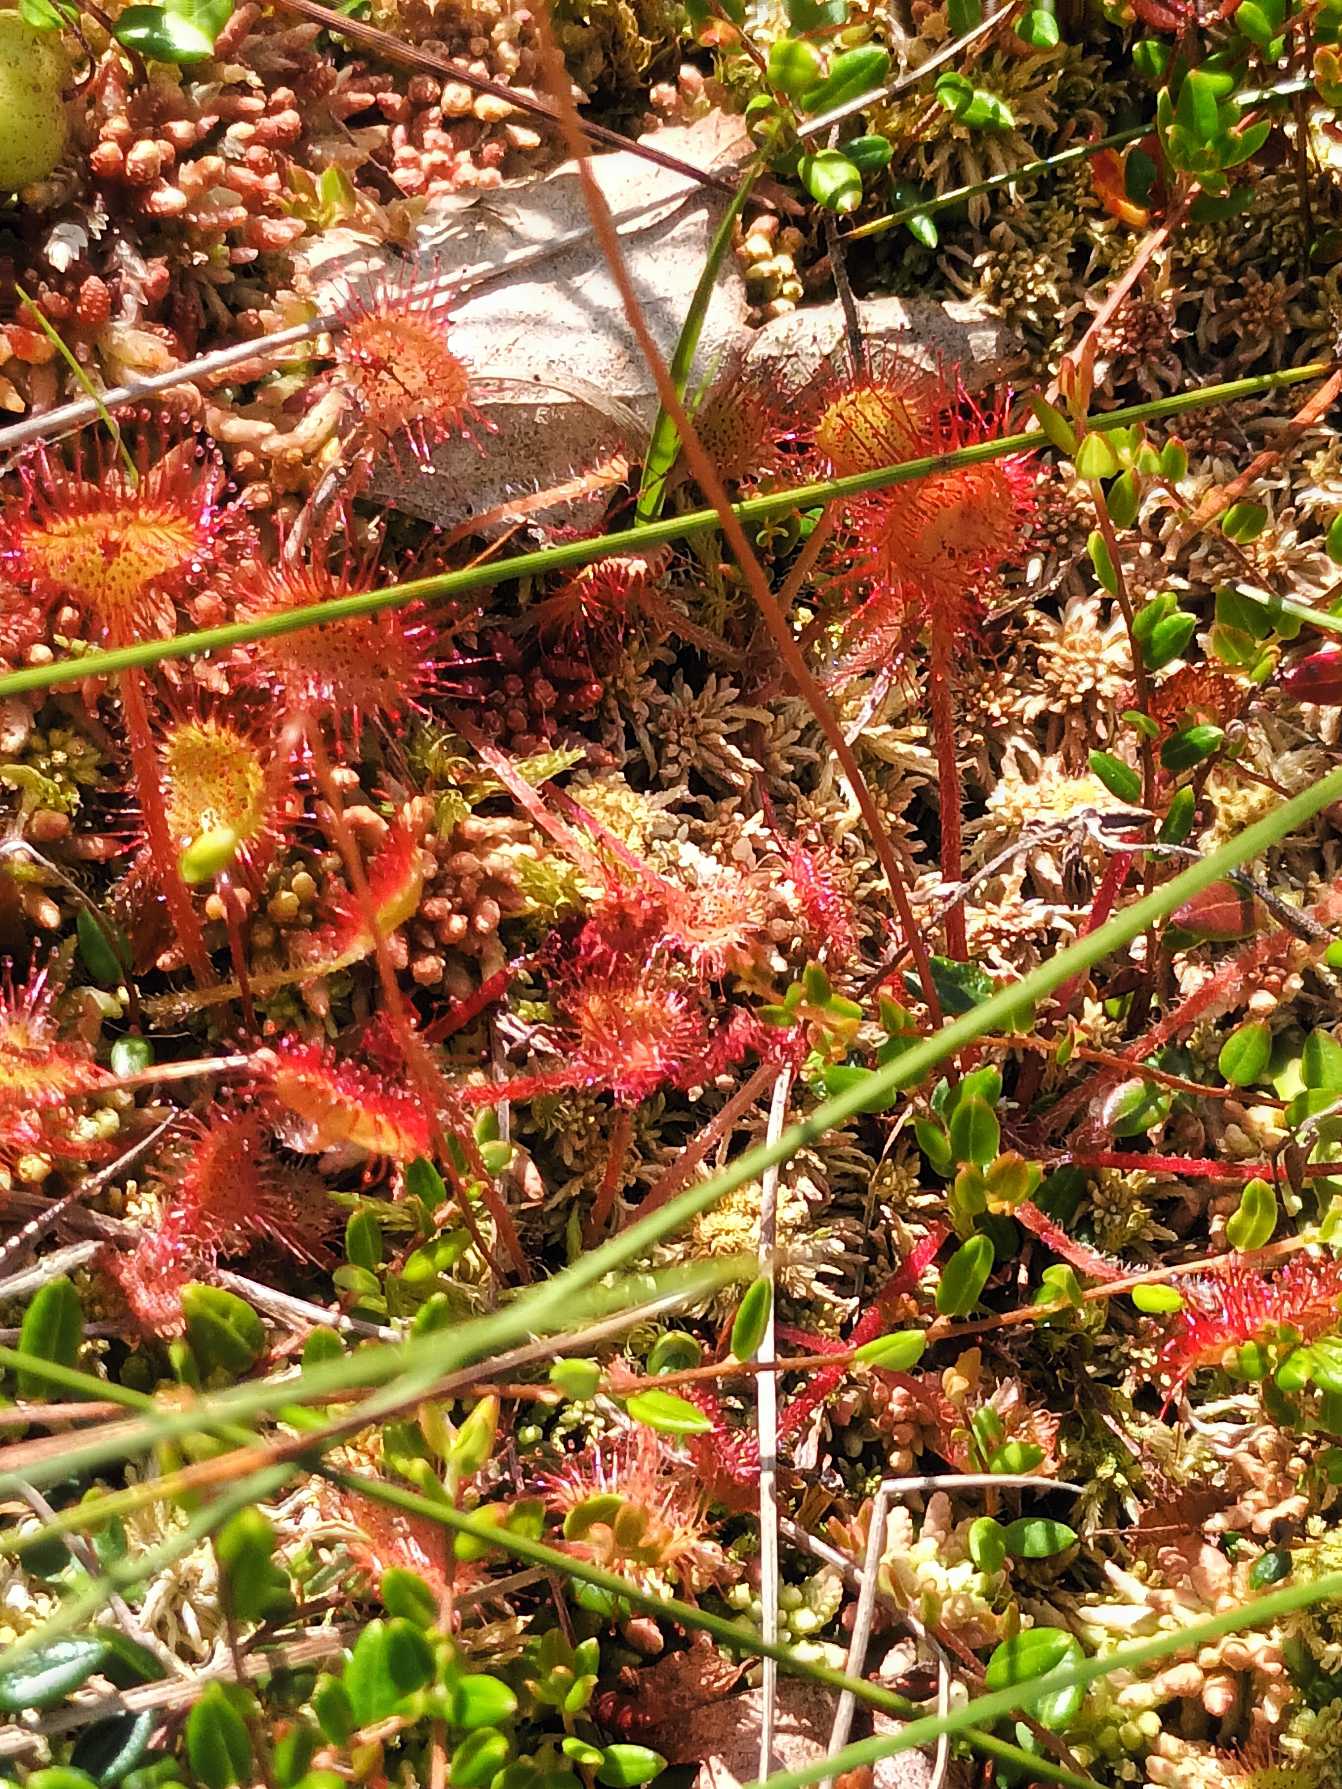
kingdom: Plantae
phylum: Tracheophyta
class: Magnoliopsida
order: Caryophyllales
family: Droseraceae
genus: Drosera
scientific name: Drosera rotundifolia
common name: Rundbladet soldug
